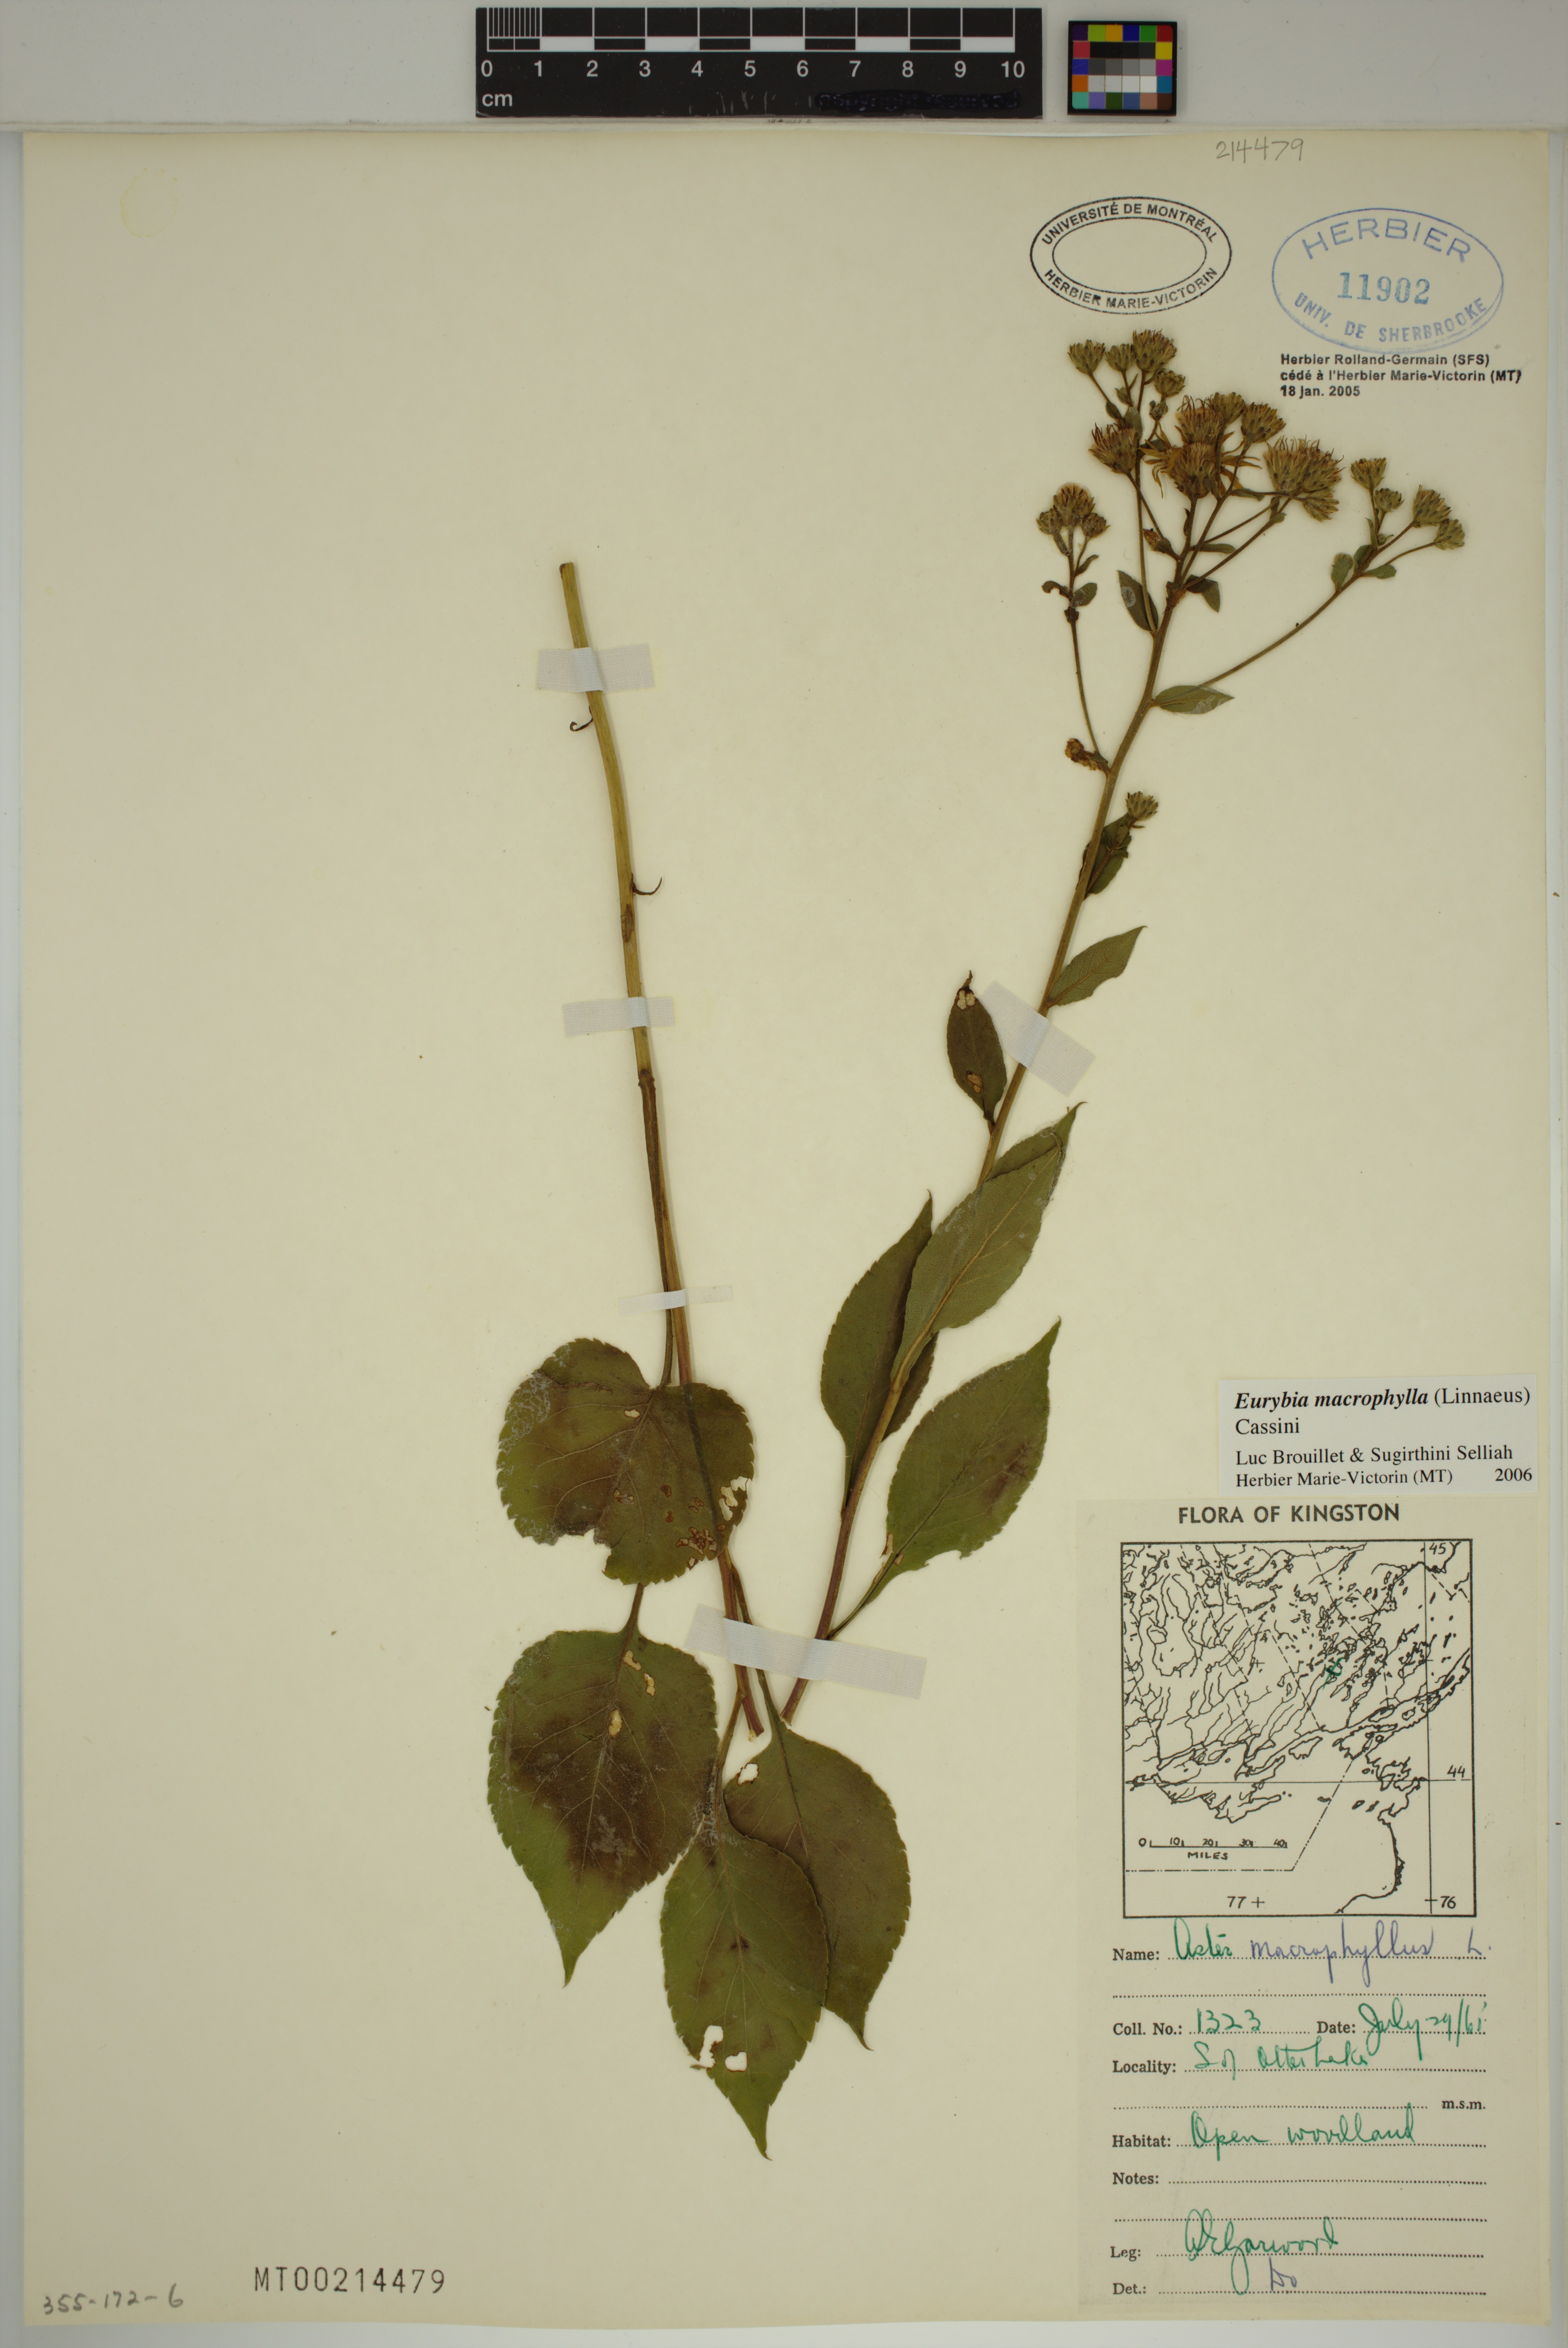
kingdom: Plantae
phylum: Tracheophyta
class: Magnoliopsida
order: Asterales
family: Asteraceae
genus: Eurybia
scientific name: Eurybia macrophylla
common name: Big-leaved aster
